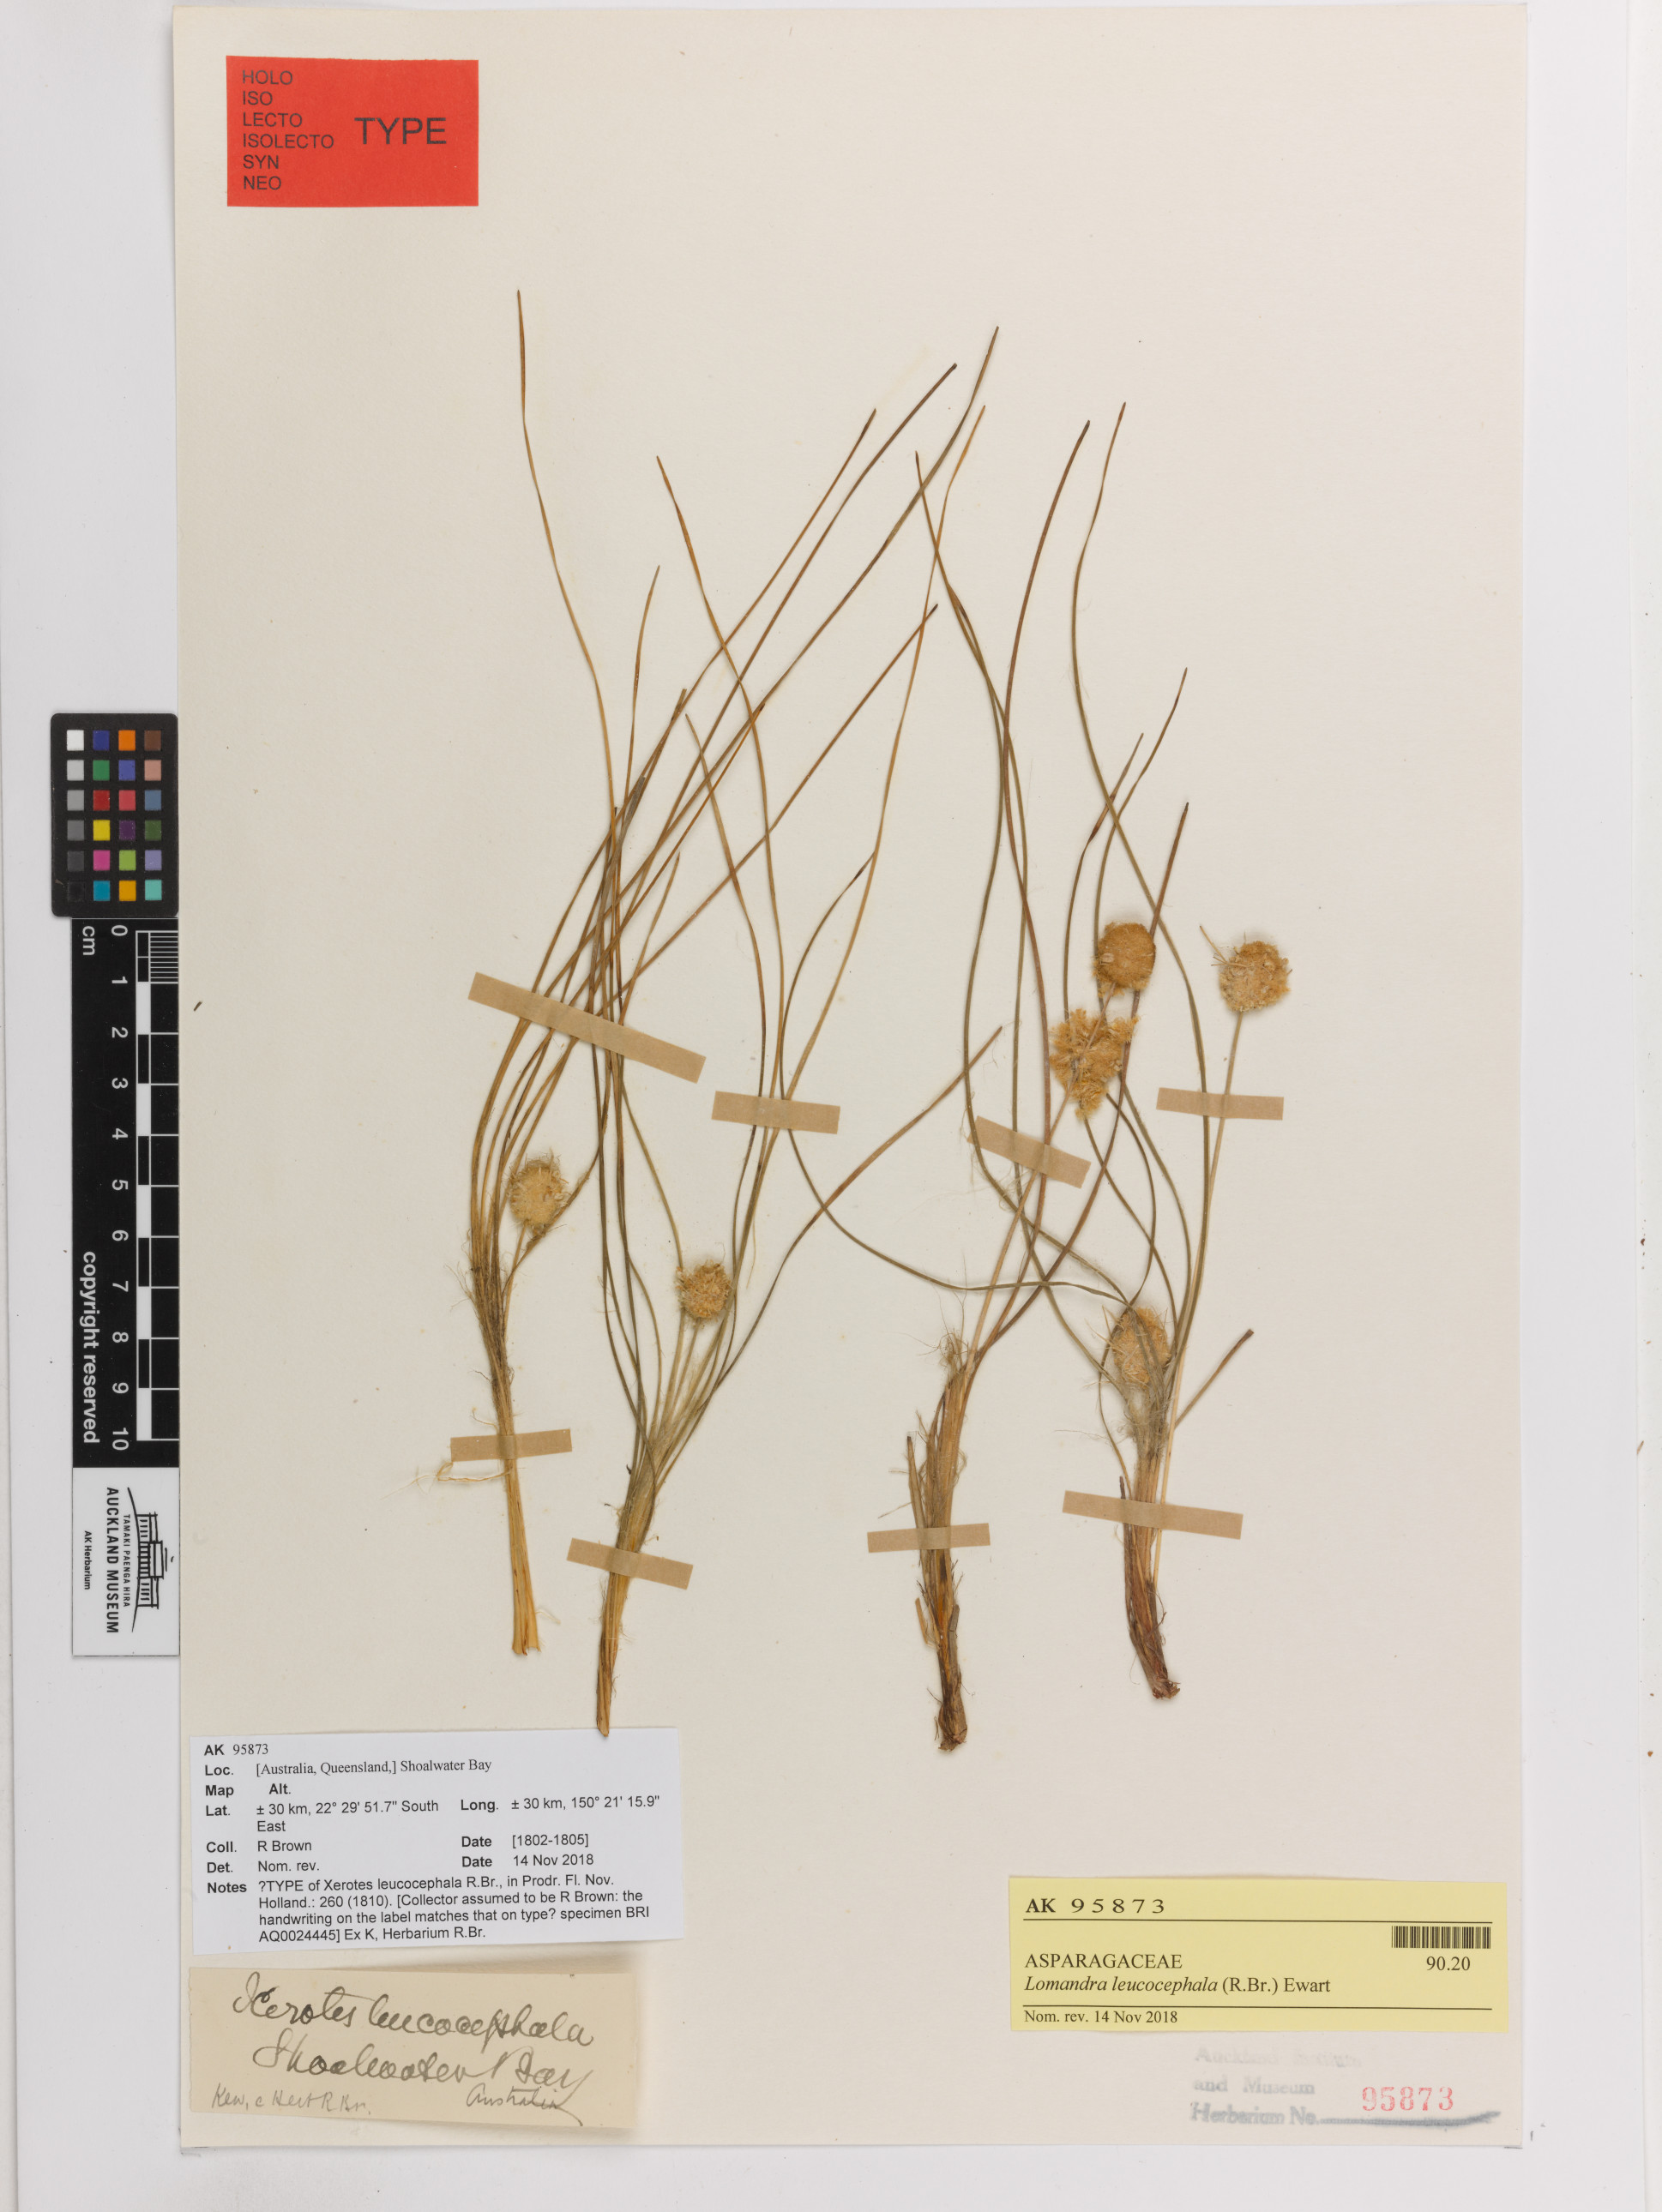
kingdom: Plantae
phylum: Tracheophyta
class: Liliopsida
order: Asparagales
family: Asparagaceae
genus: Lomandra
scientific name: Lomandra leucocephala
